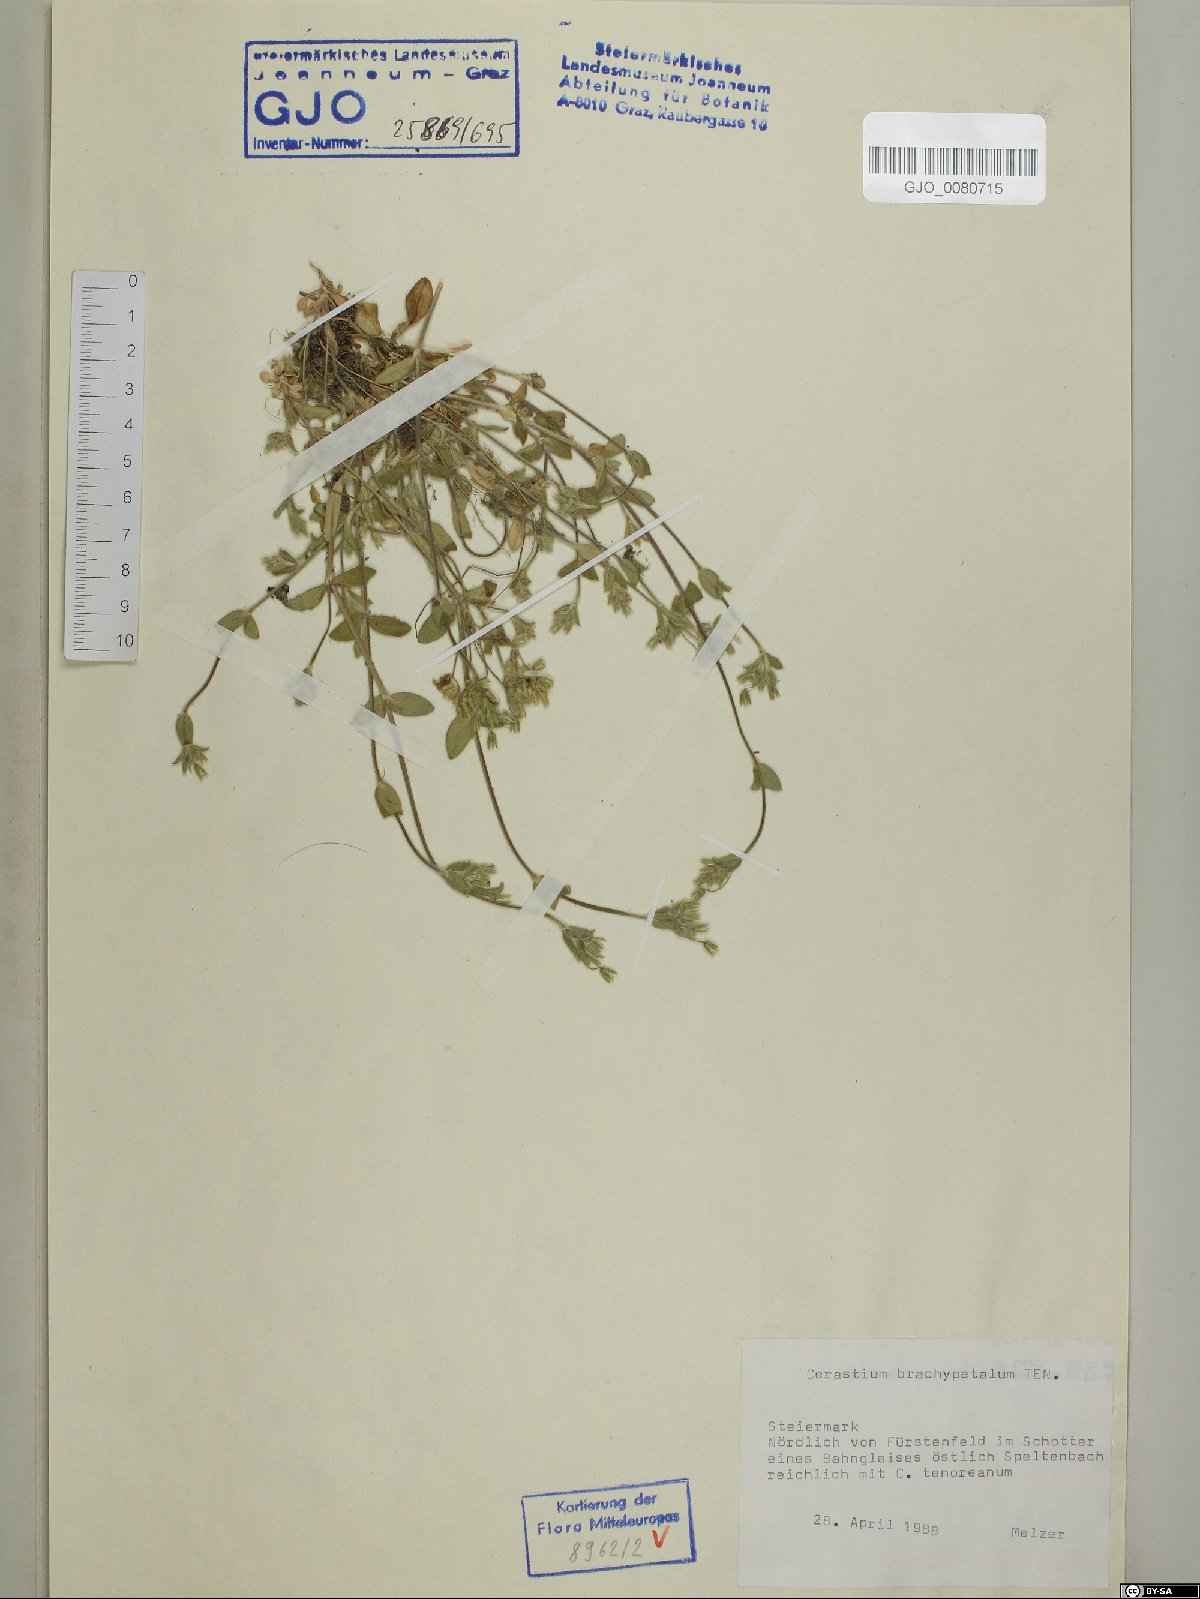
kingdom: Plantae
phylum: Tracheophyta
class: Magnoliopsida
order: Caryophyllales
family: Caryophyllaceae
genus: Cerastium
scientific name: Cerastium brachypetalum
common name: Grey mouse-ear
